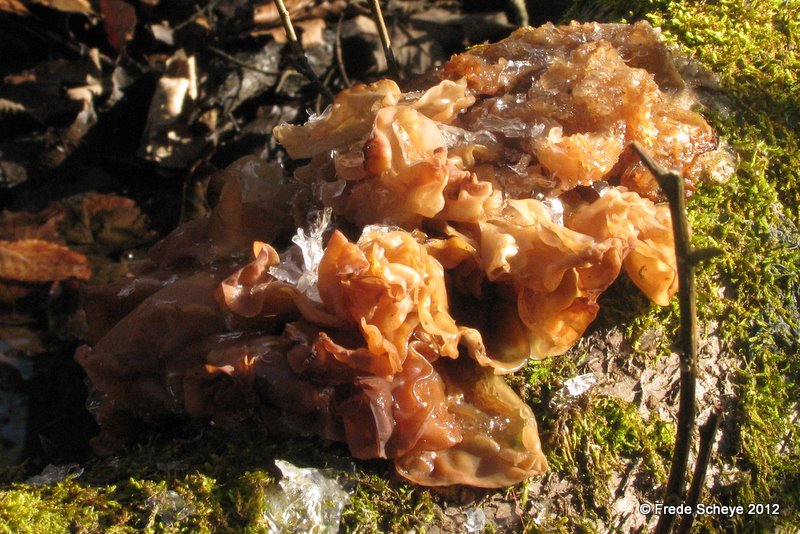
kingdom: Fungi
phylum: Basidiomycota
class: Tremellomycetes
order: Tremellales
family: Tremellaceae
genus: Phaeotremella
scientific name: Phaeotremella frondosa
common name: kæmpe-bævresvamp
